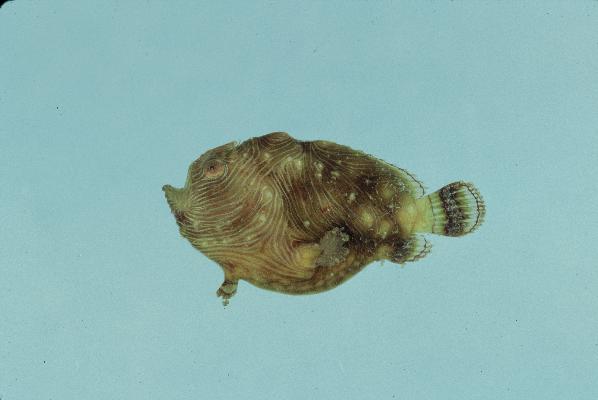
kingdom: Animalia
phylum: Chordata
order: Lophiiformes
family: Antennariidae
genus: Antennatus
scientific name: Antennatus tuberosus
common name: Reticulated frogfish
